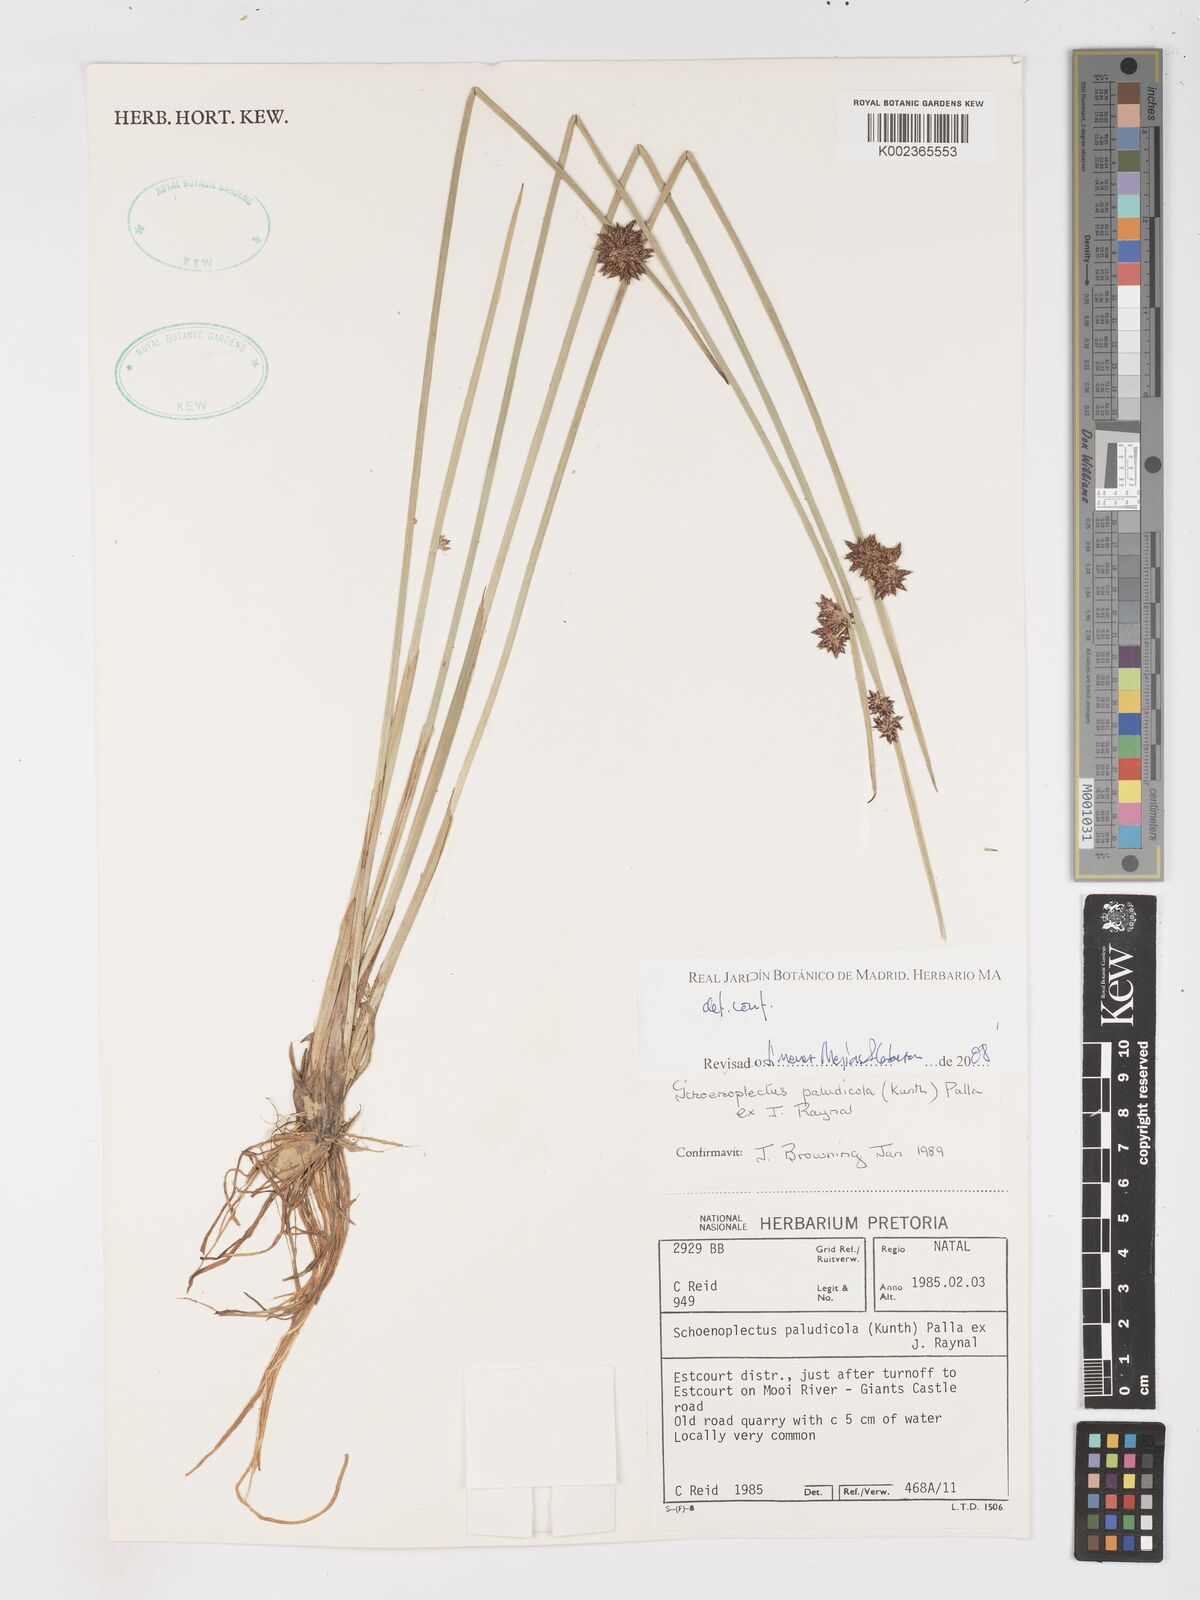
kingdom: Plantae
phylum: Tracheophyta
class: Liliopsida
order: Poales
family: Cyperaceae
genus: Schoenoplectiella
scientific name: Schoenoplectiella paludicola
